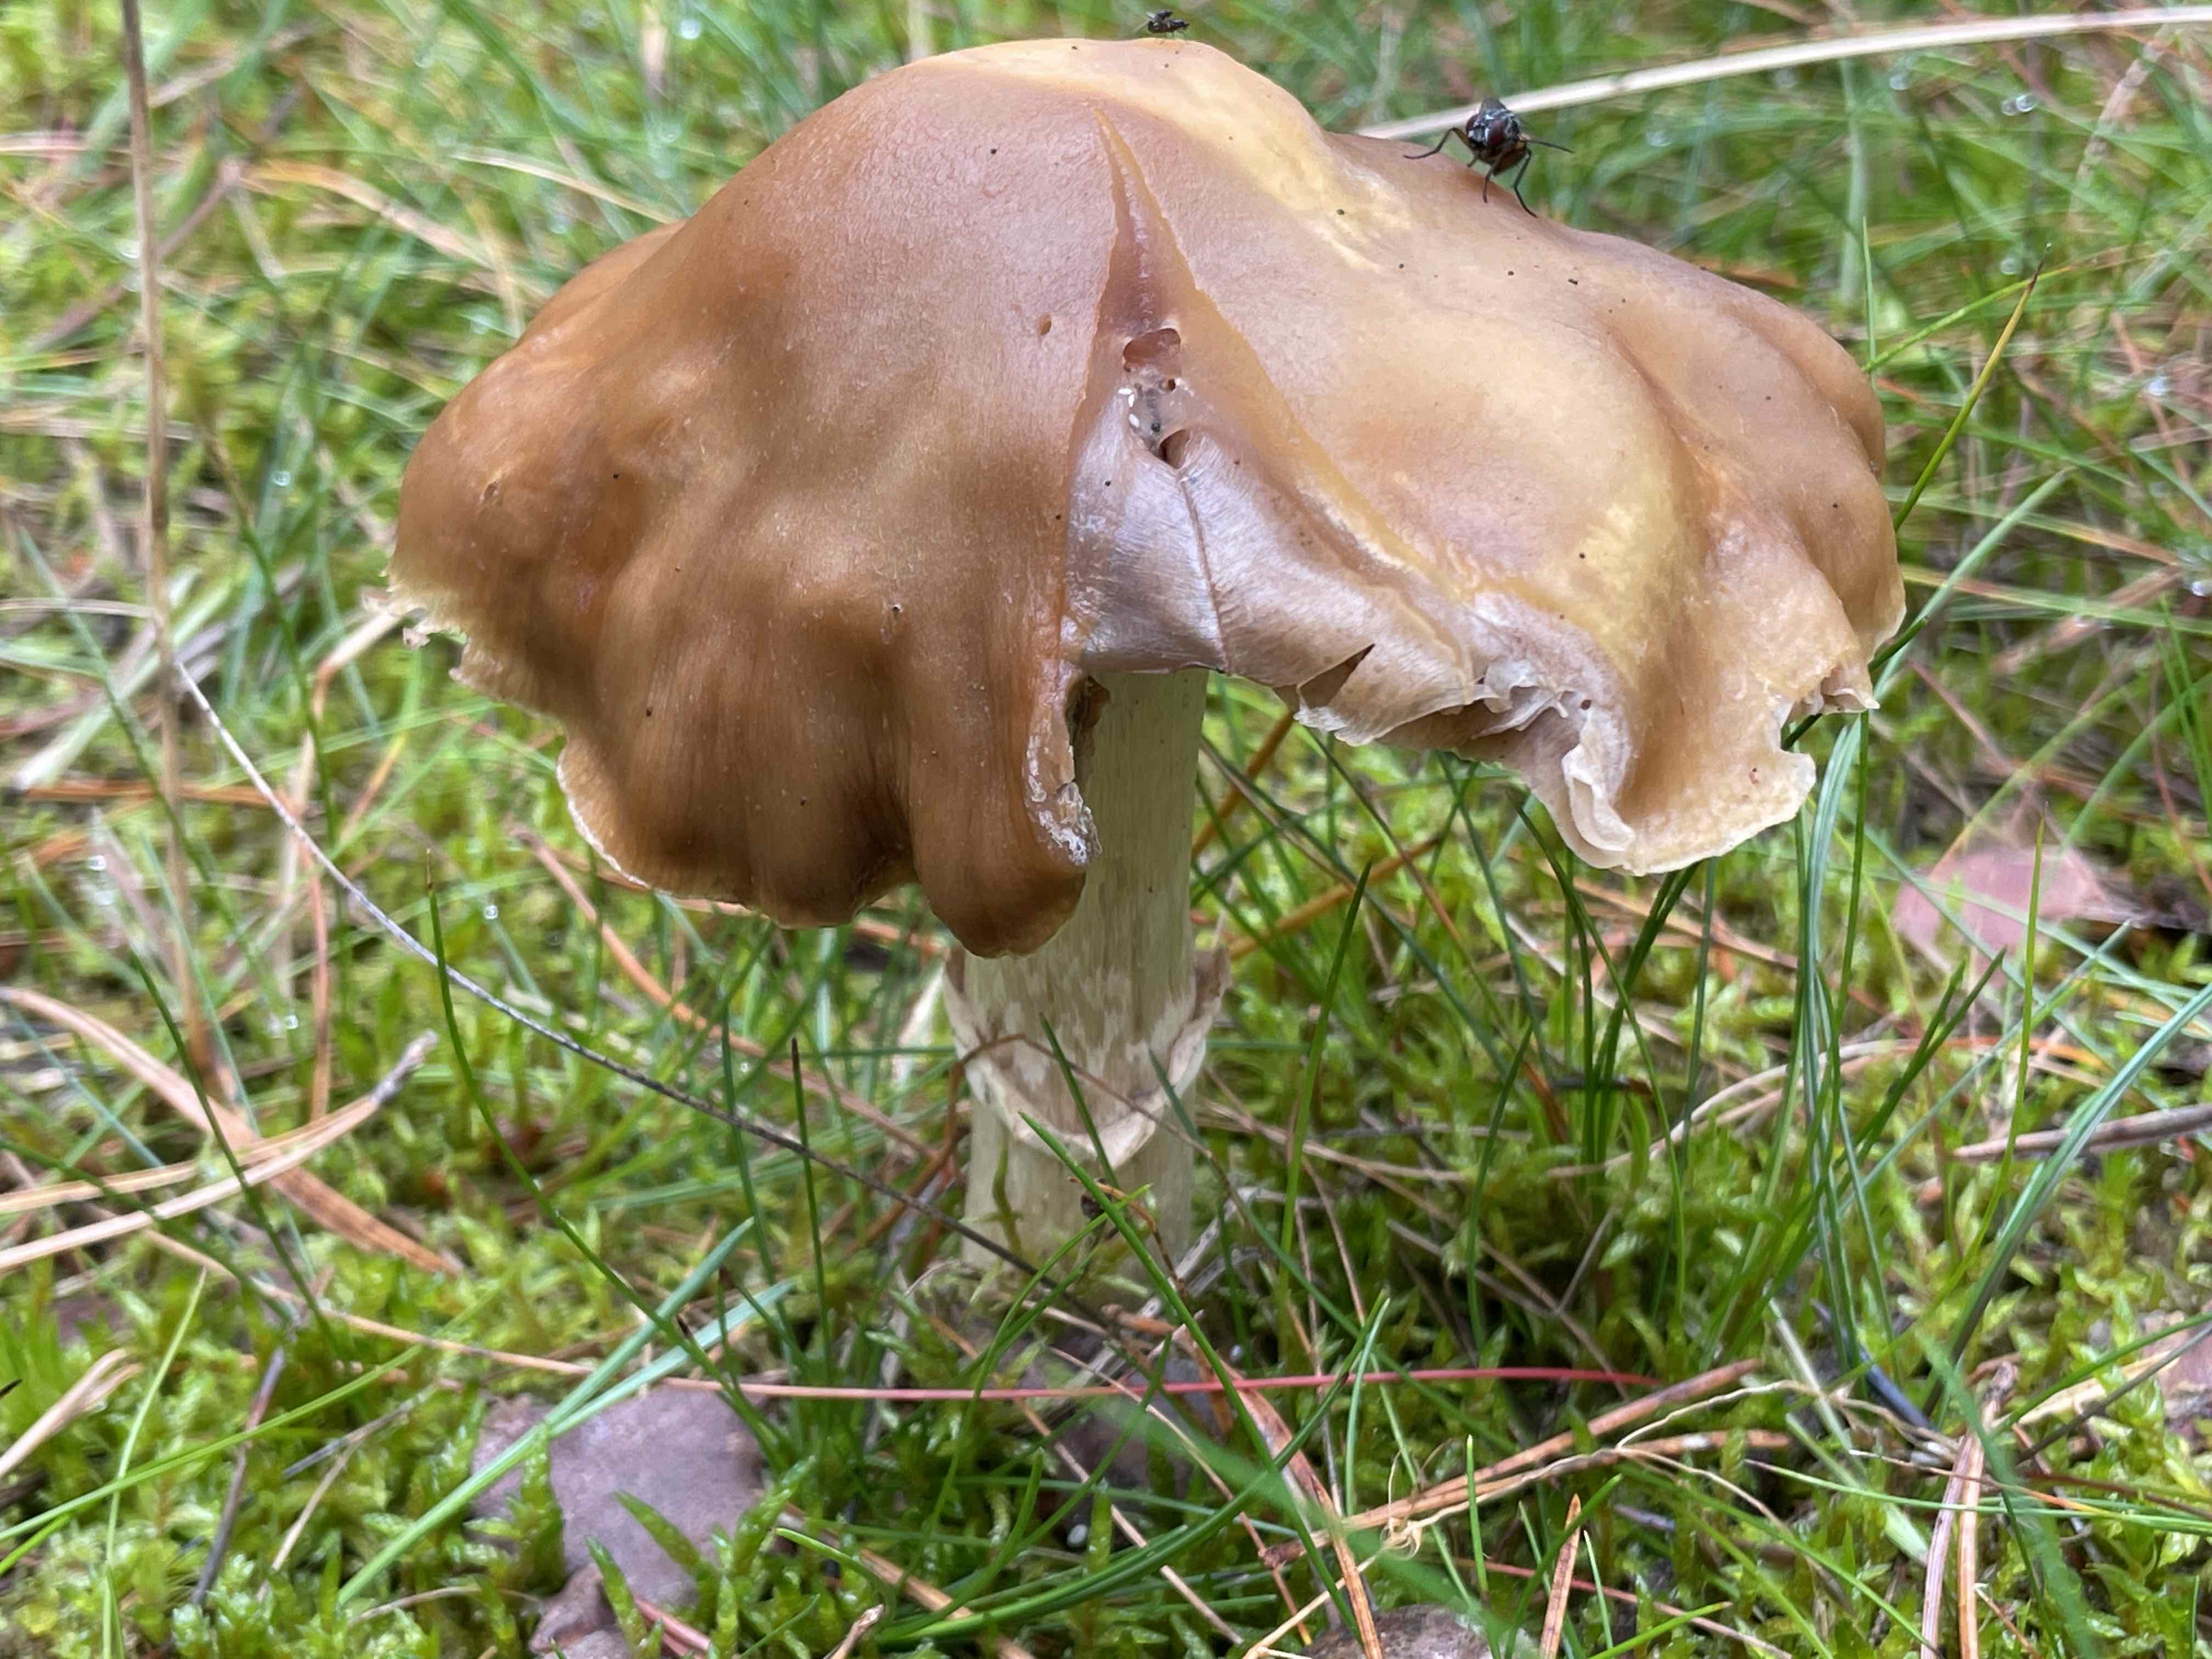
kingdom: Fungi
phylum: Basidiomycota
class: Agaricomycetes
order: Agaricales
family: Cortinariaceae
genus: Cortinarius
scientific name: Cortinarius caperatus
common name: klidhat
